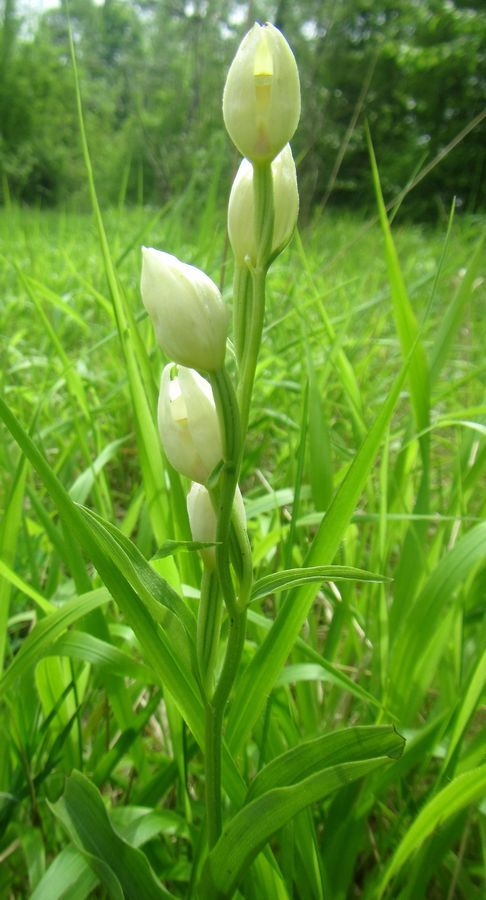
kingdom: Plantae
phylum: Tracheophyta
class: Liliopsida
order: Asparagales
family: Orchidaceae
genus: Cephalanthera
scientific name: Cephalanthera damasonium
